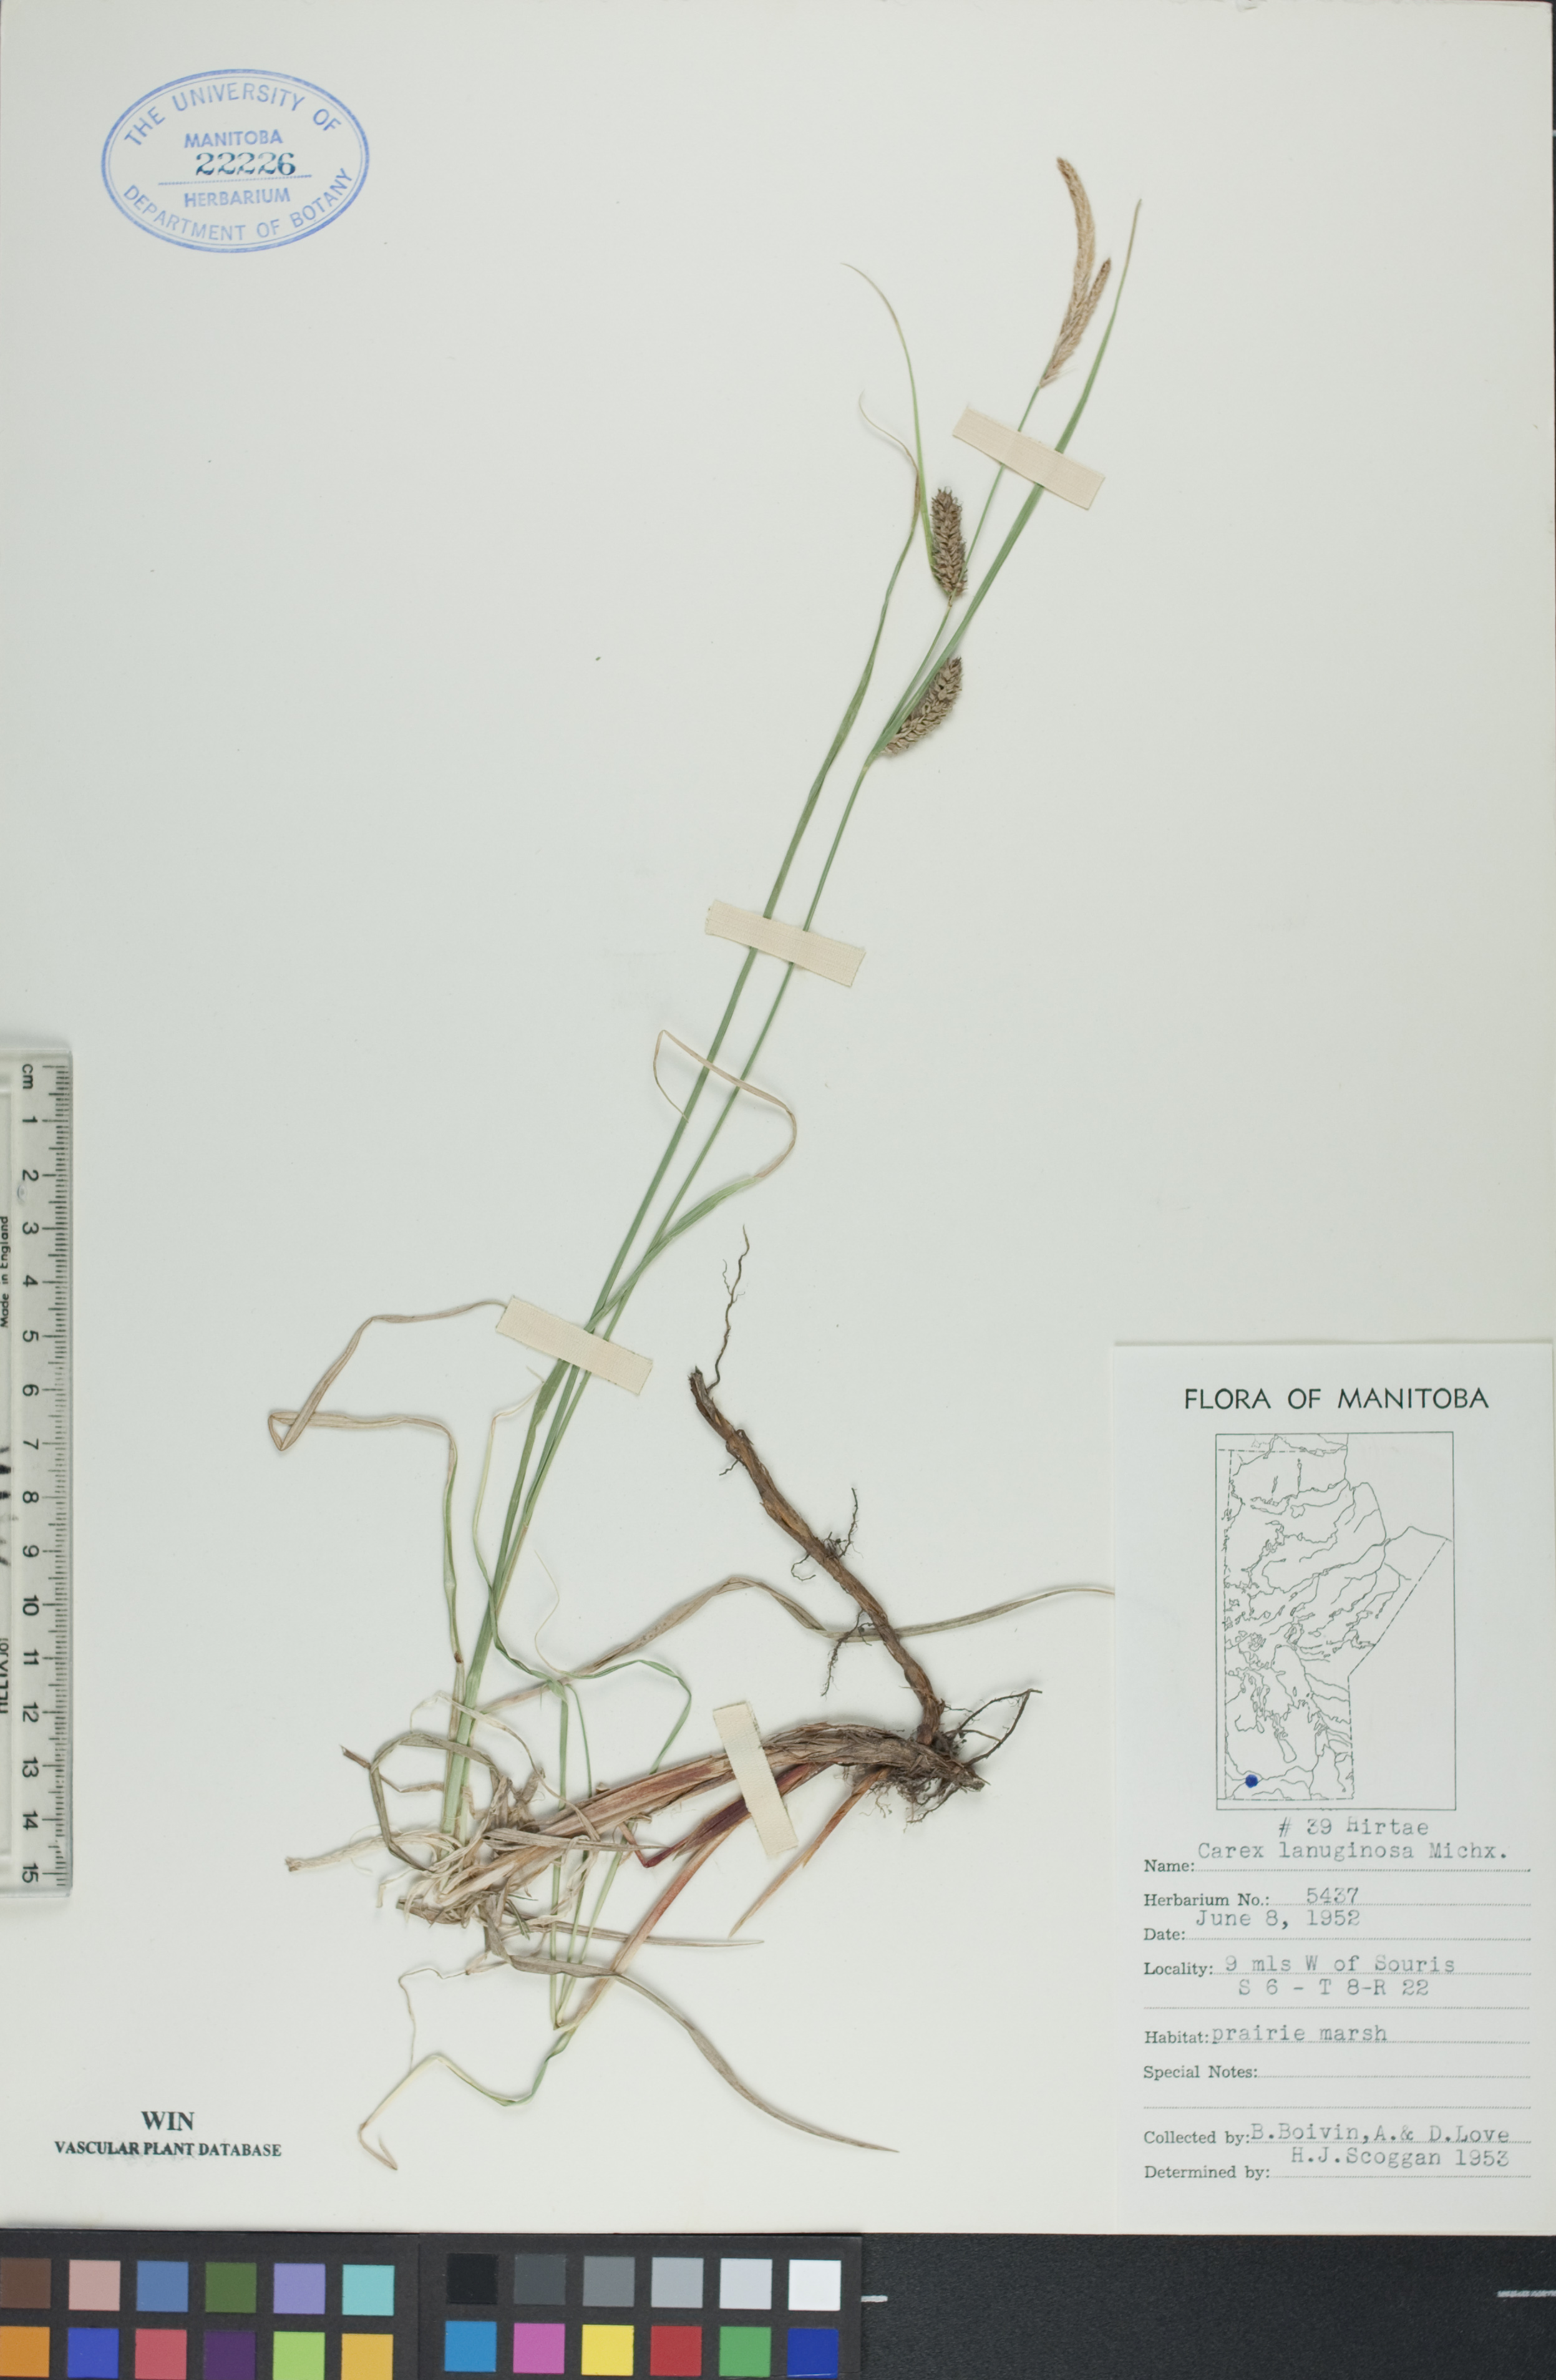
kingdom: Plantae
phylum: Tracheophyta
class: Liliopsida
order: Poales
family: Cyperaceae
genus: Carex
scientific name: Carex lasiocarpa
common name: Slender sedge
